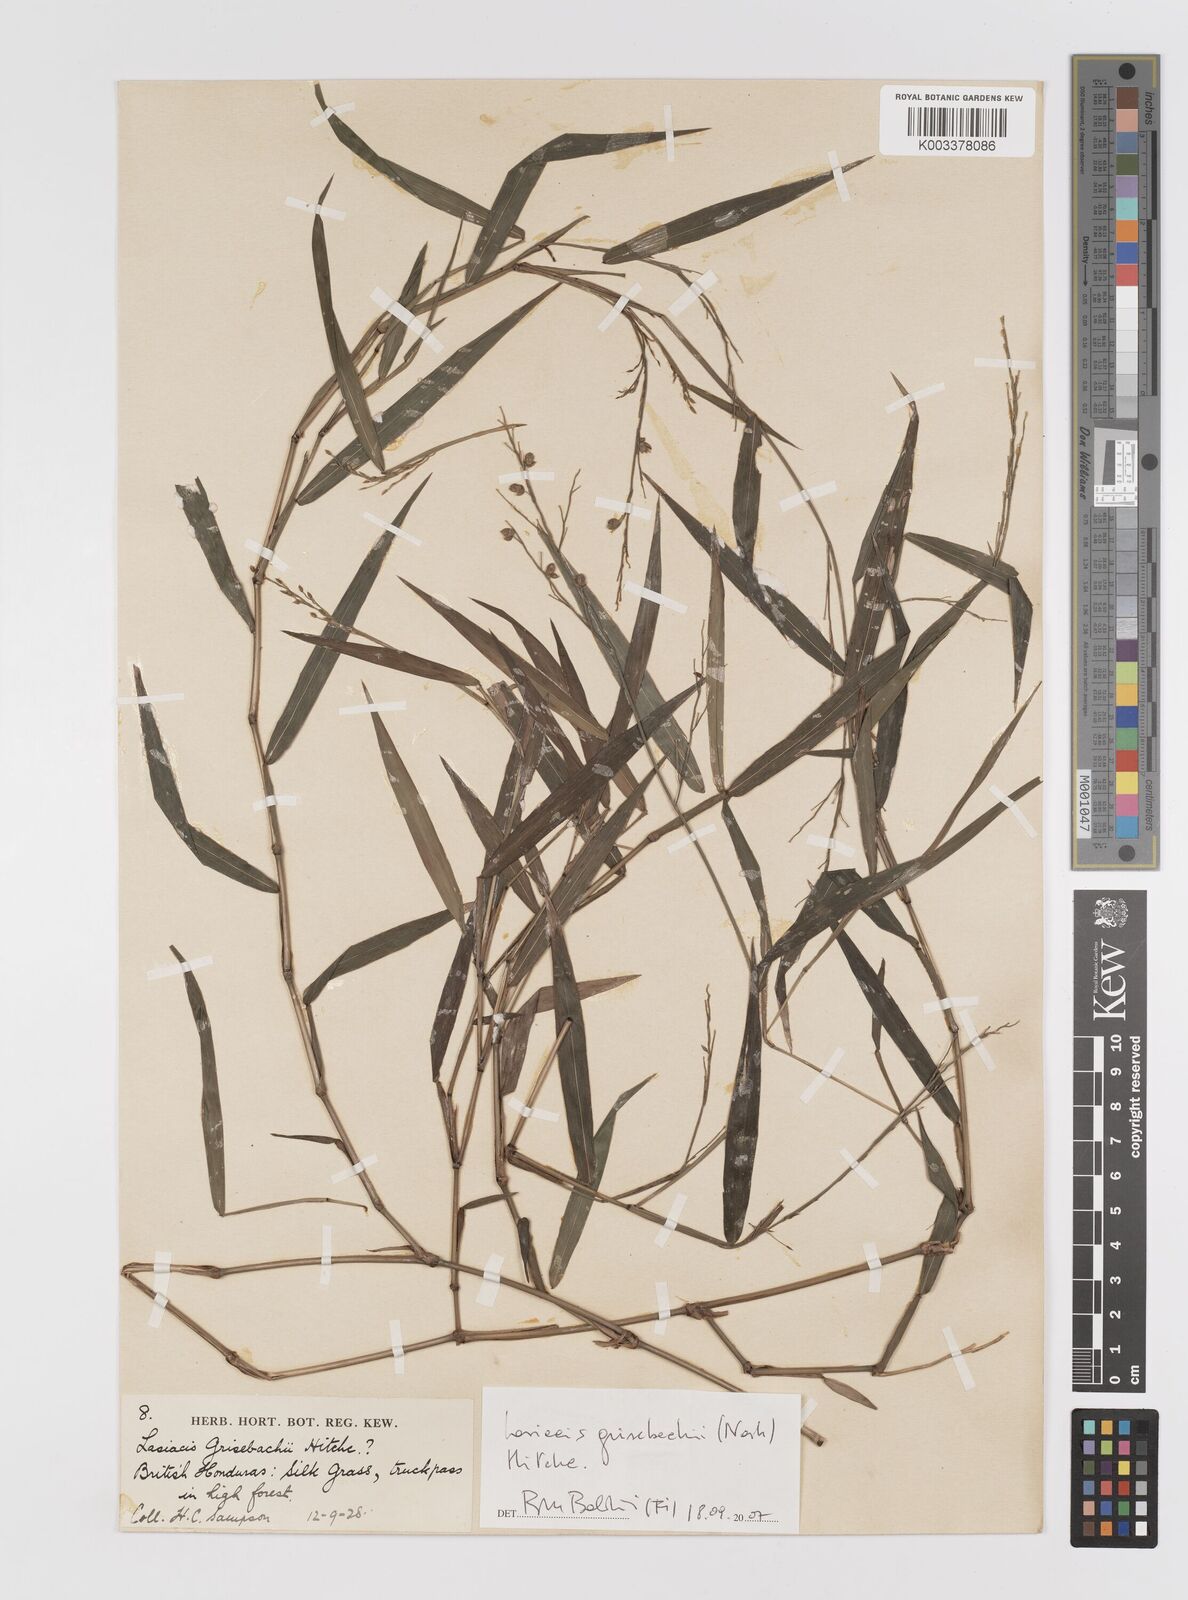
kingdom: Plantae
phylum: Tracheophyta
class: Liliopsida
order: Poales
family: Poaceae
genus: Lasiacis
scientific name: Lasiacis grisebachii
